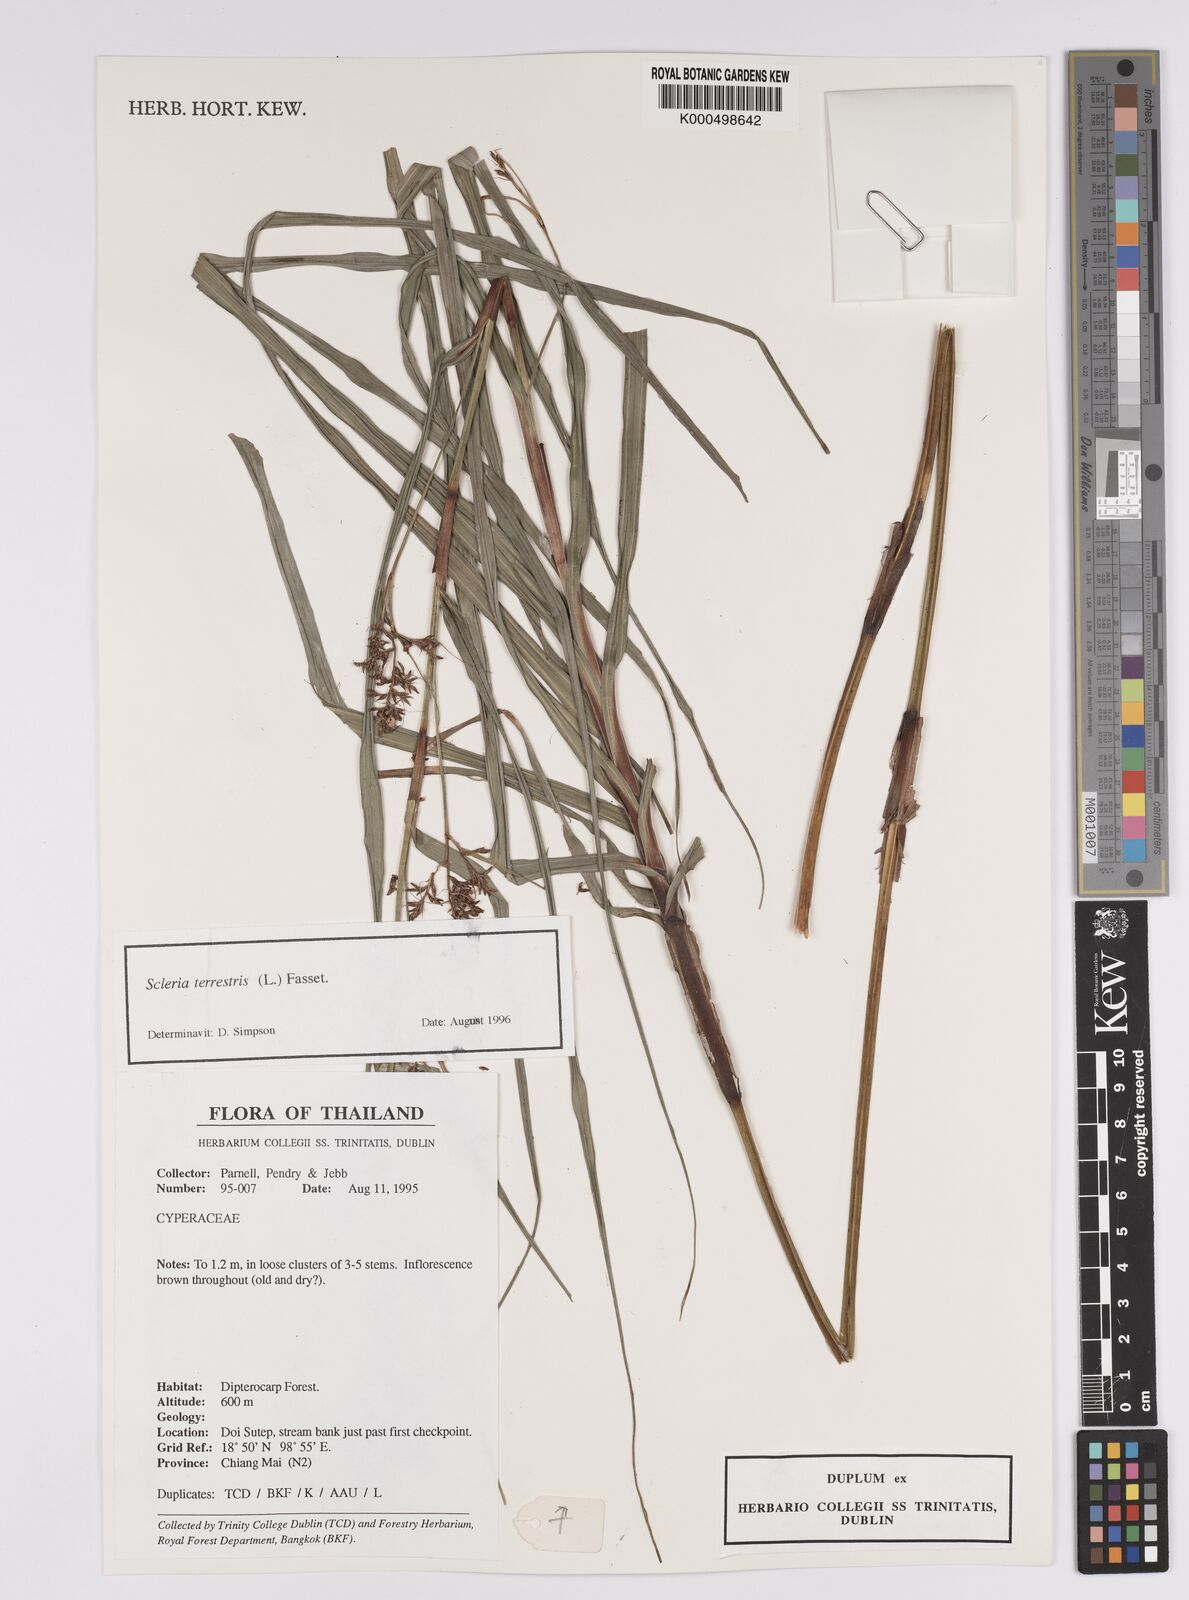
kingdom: Plantae
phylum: Tracheophyta
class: Liliopsida
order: Poales
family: Cyperaceae
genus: Scleria
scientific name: Scleria terrestris
